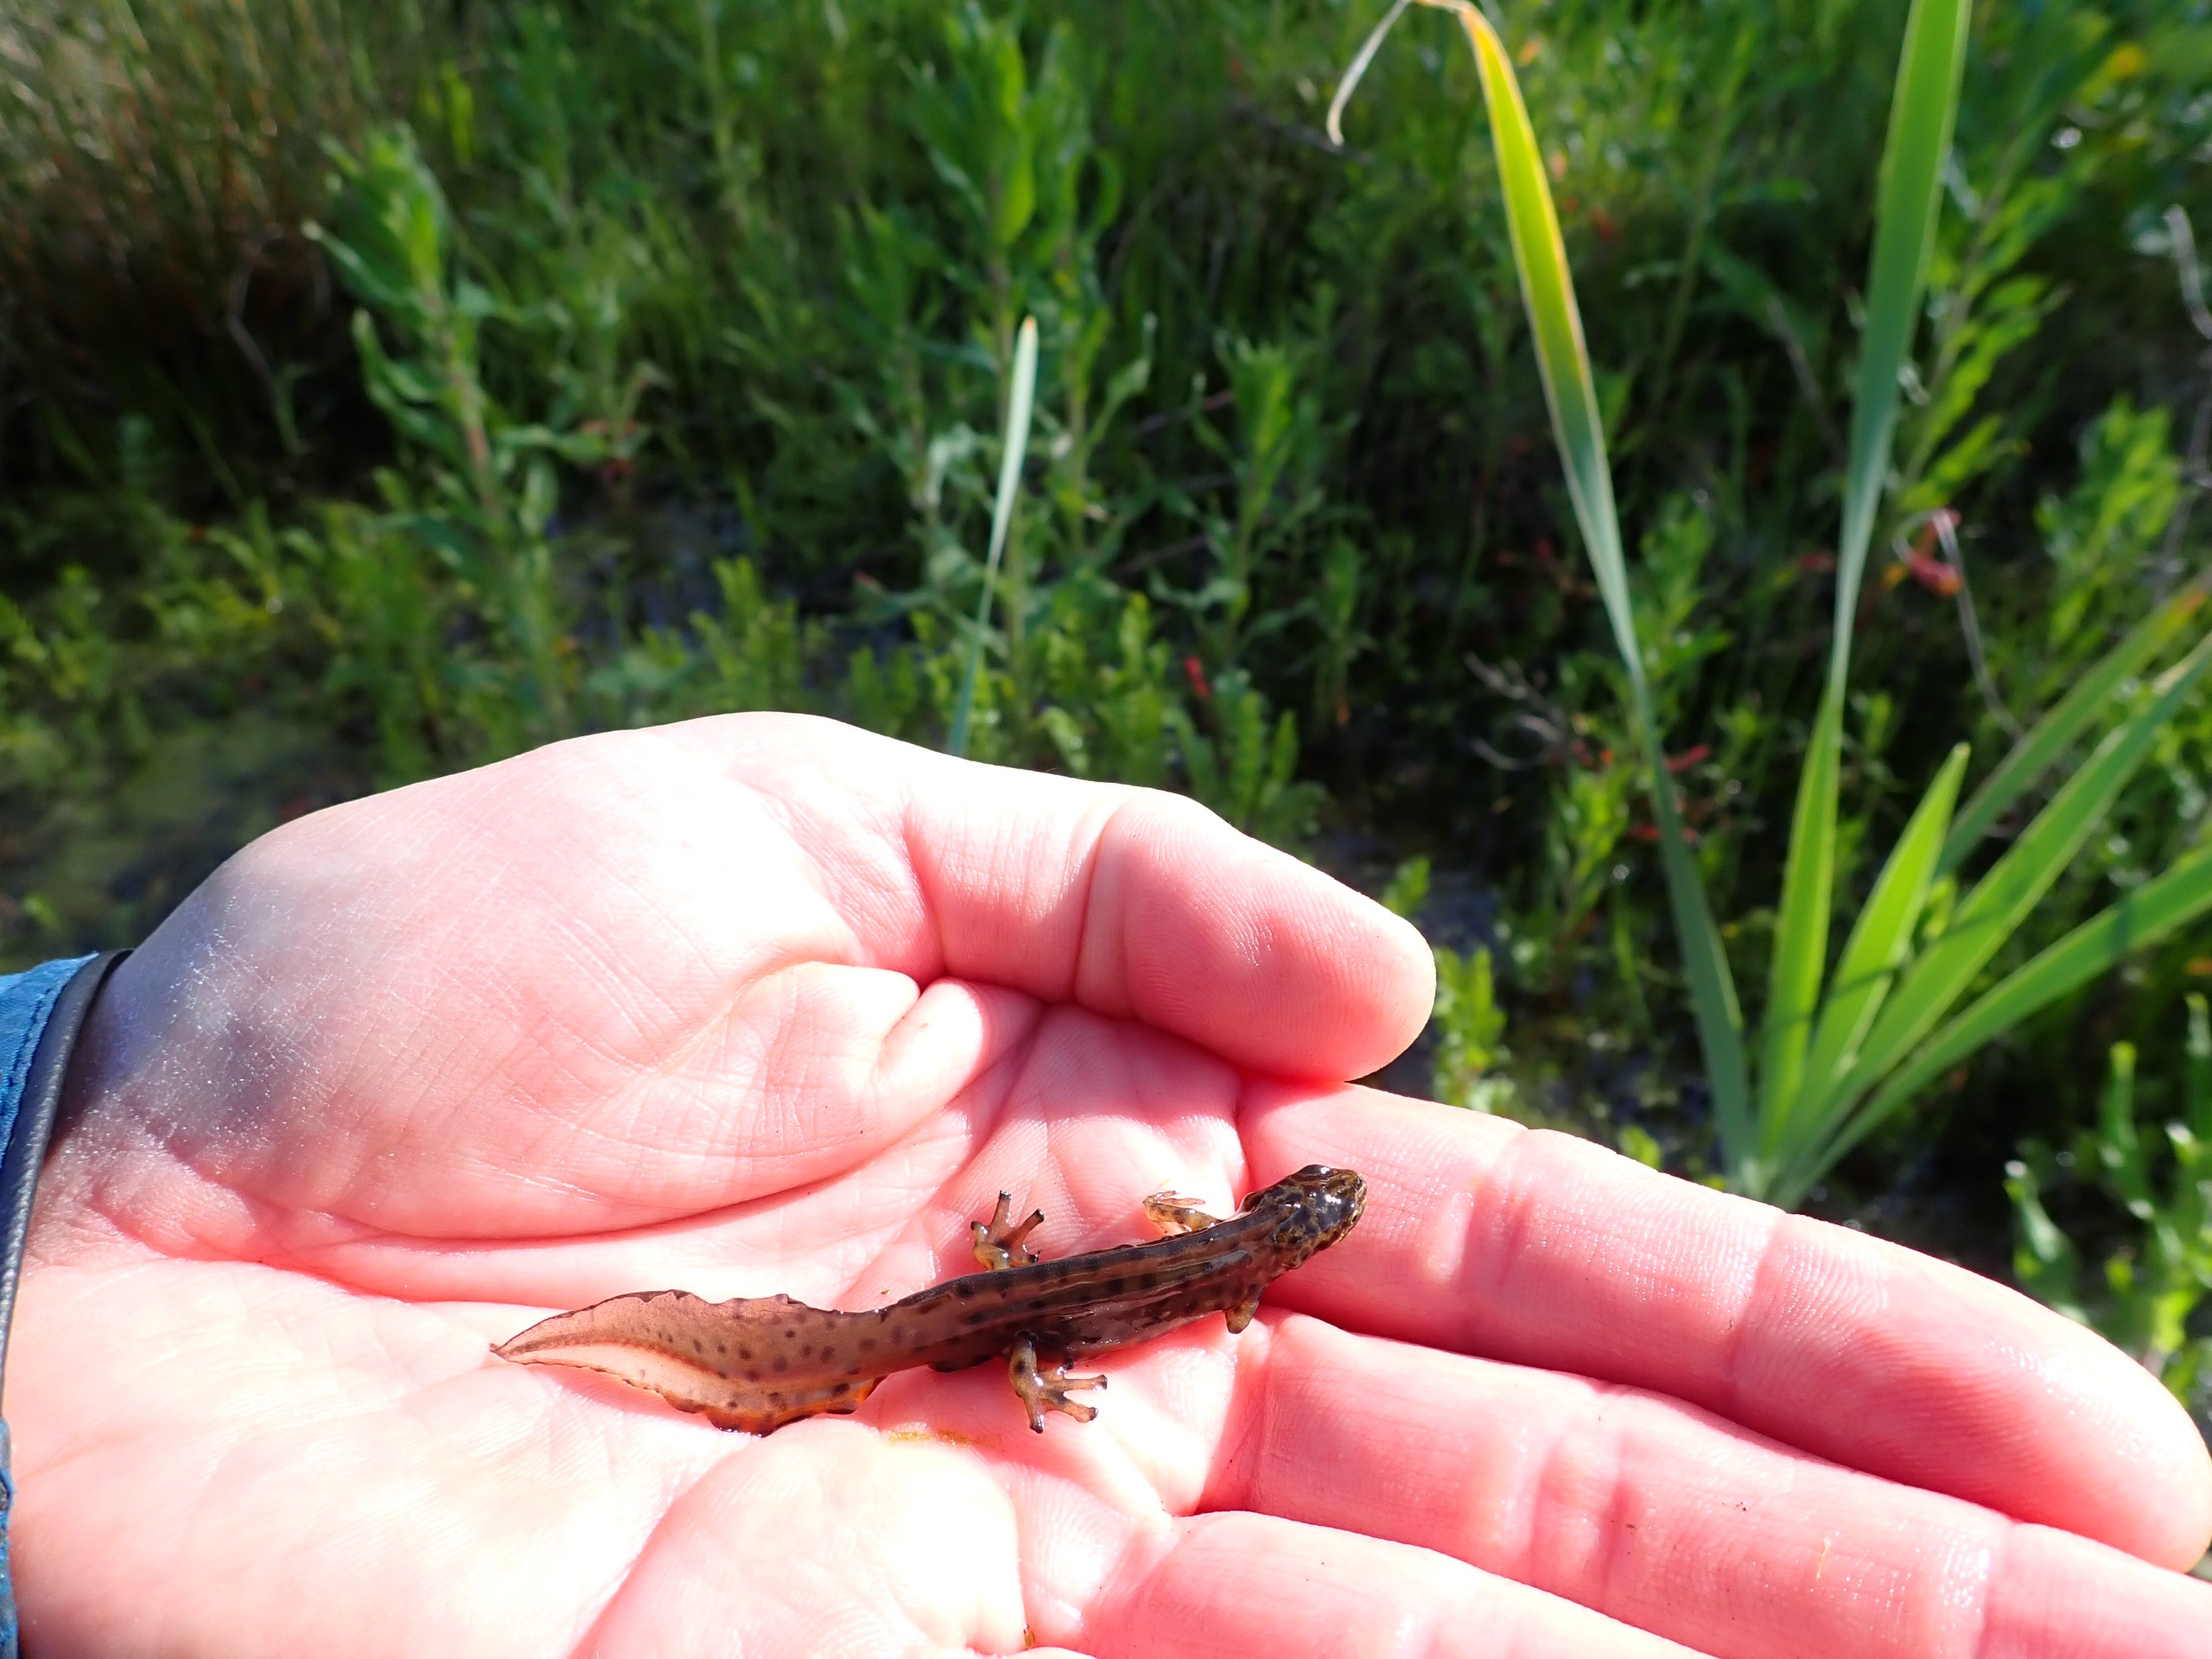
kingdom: Animalia
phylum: Chordata
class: Amphibia
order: Caudata
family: Salamandridae
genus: Lissotriton
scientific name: Lissotriton vulgaris
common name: Lille vandsalamander
